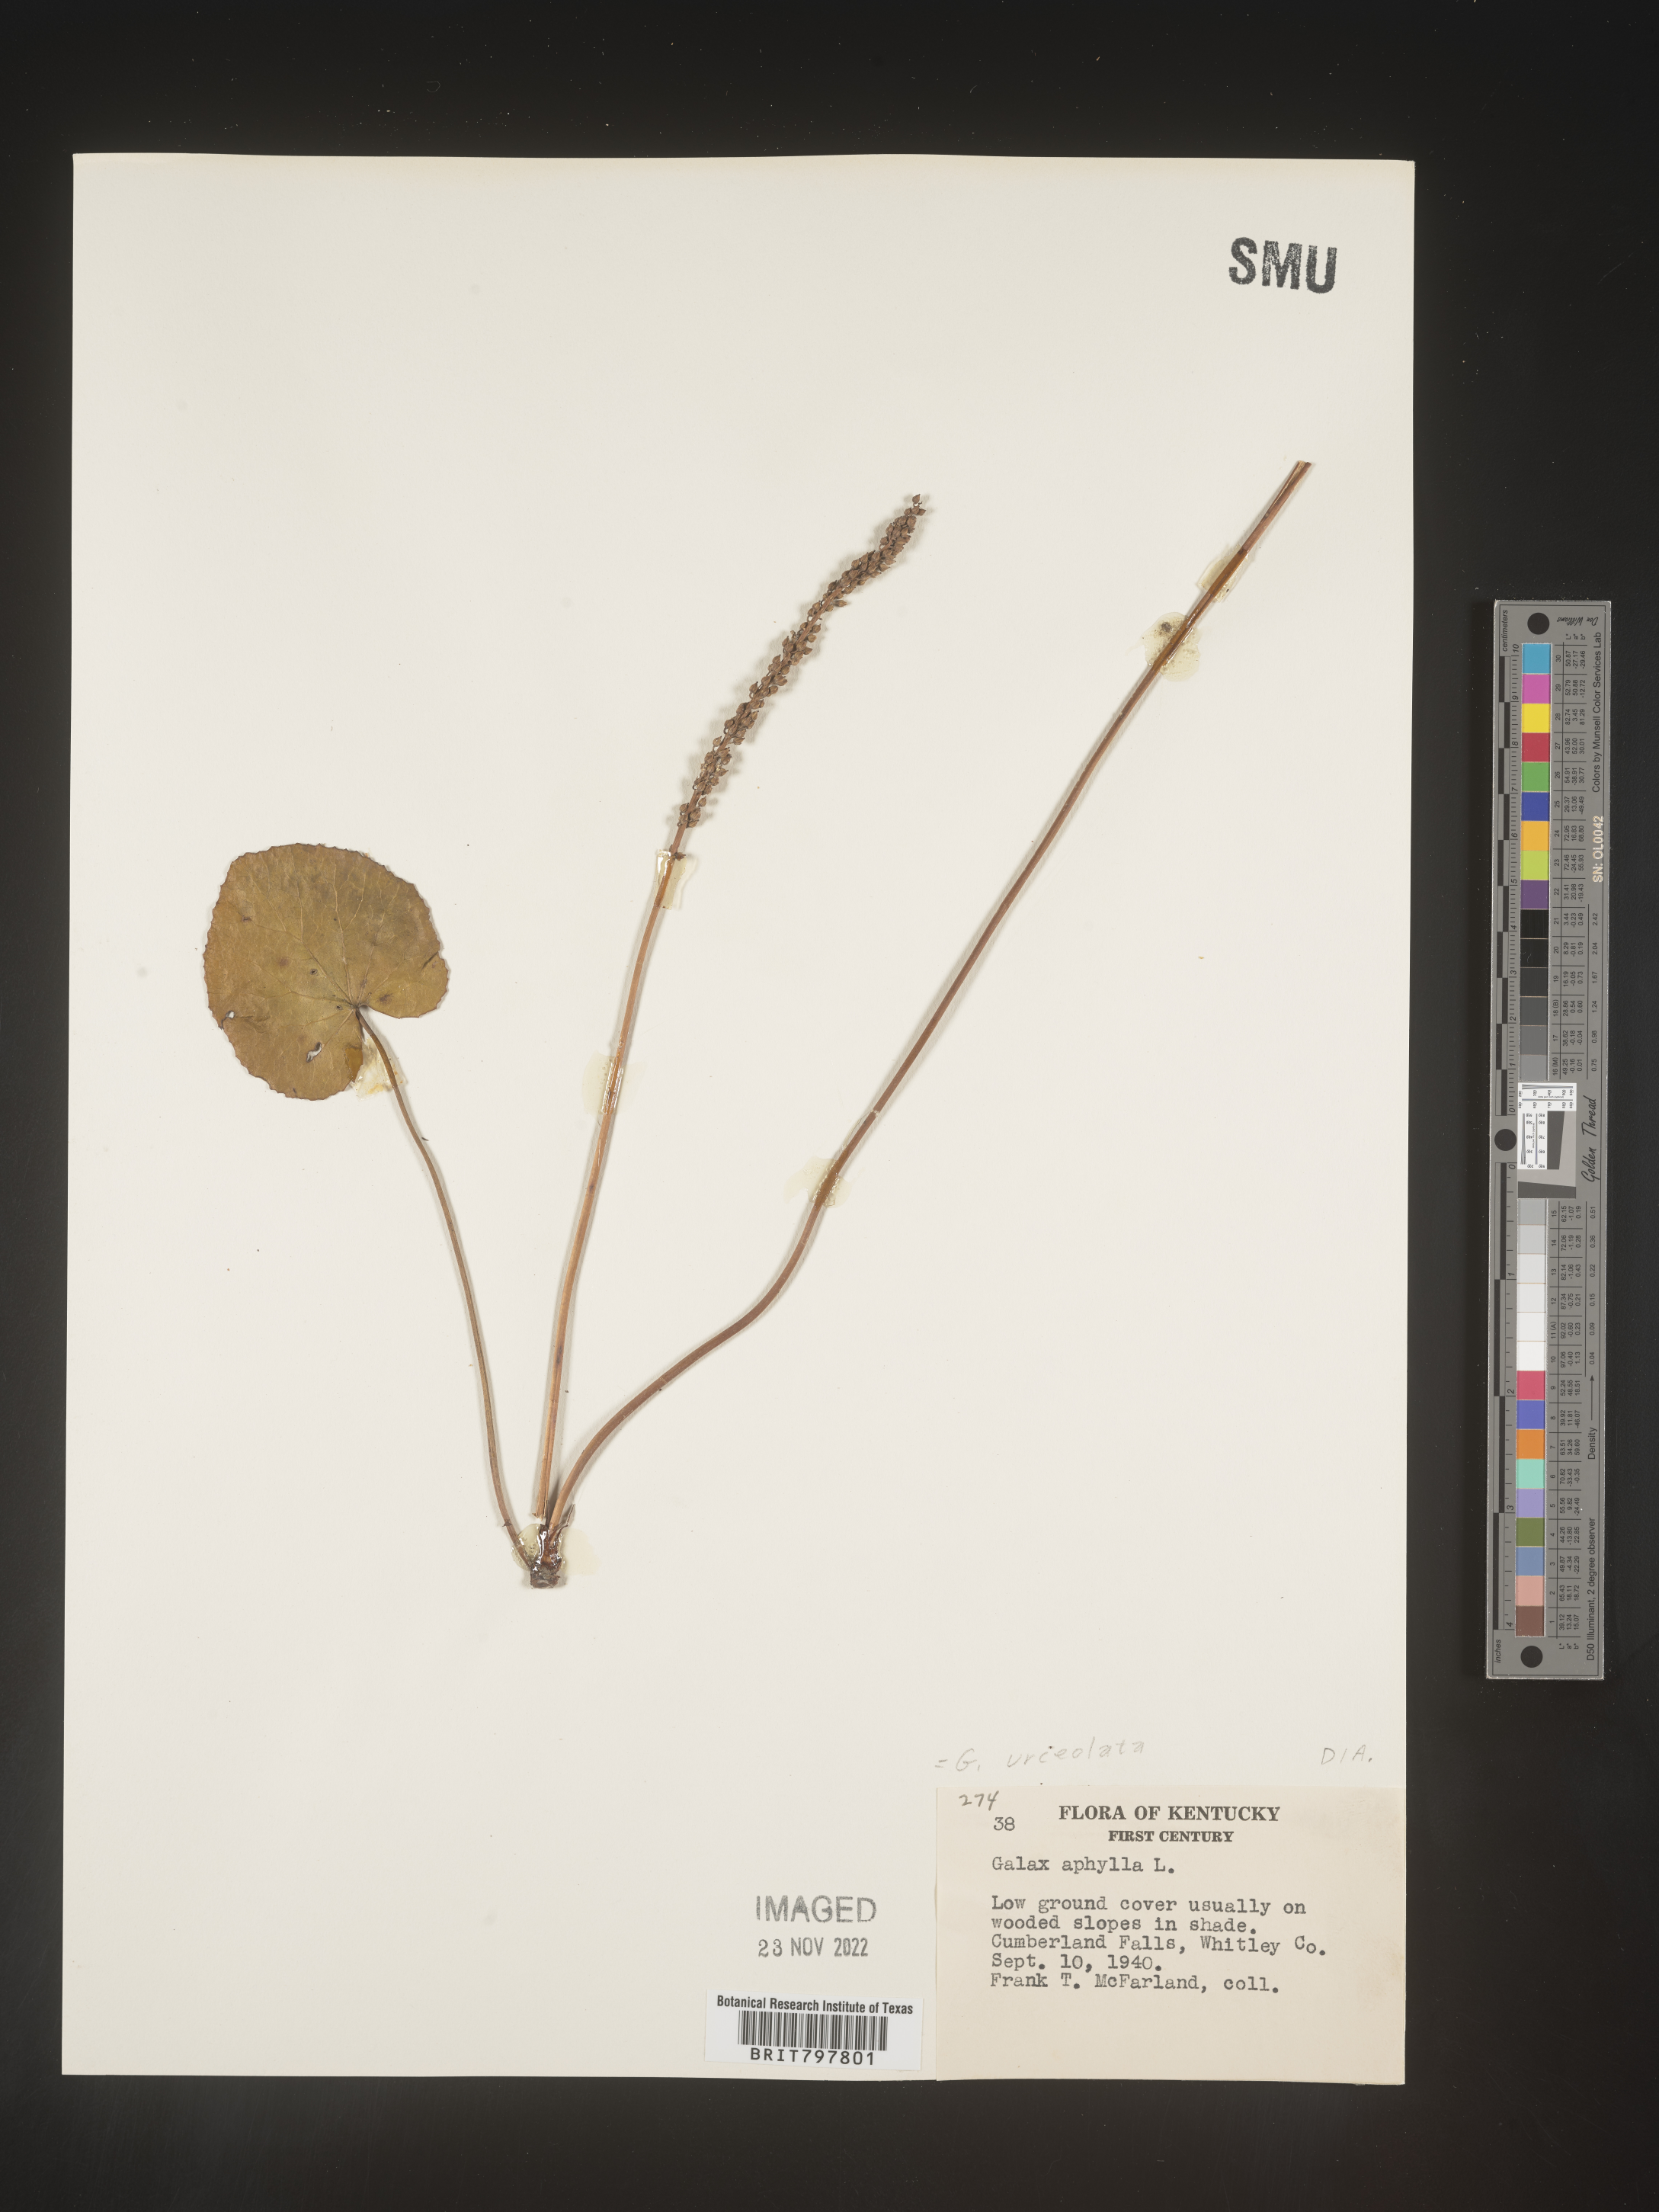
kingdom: Plantae
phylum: Tracheophyta
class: Magnoliopsida
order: Ericales
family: Diapensiaceae
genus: Galax
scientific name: Galax
